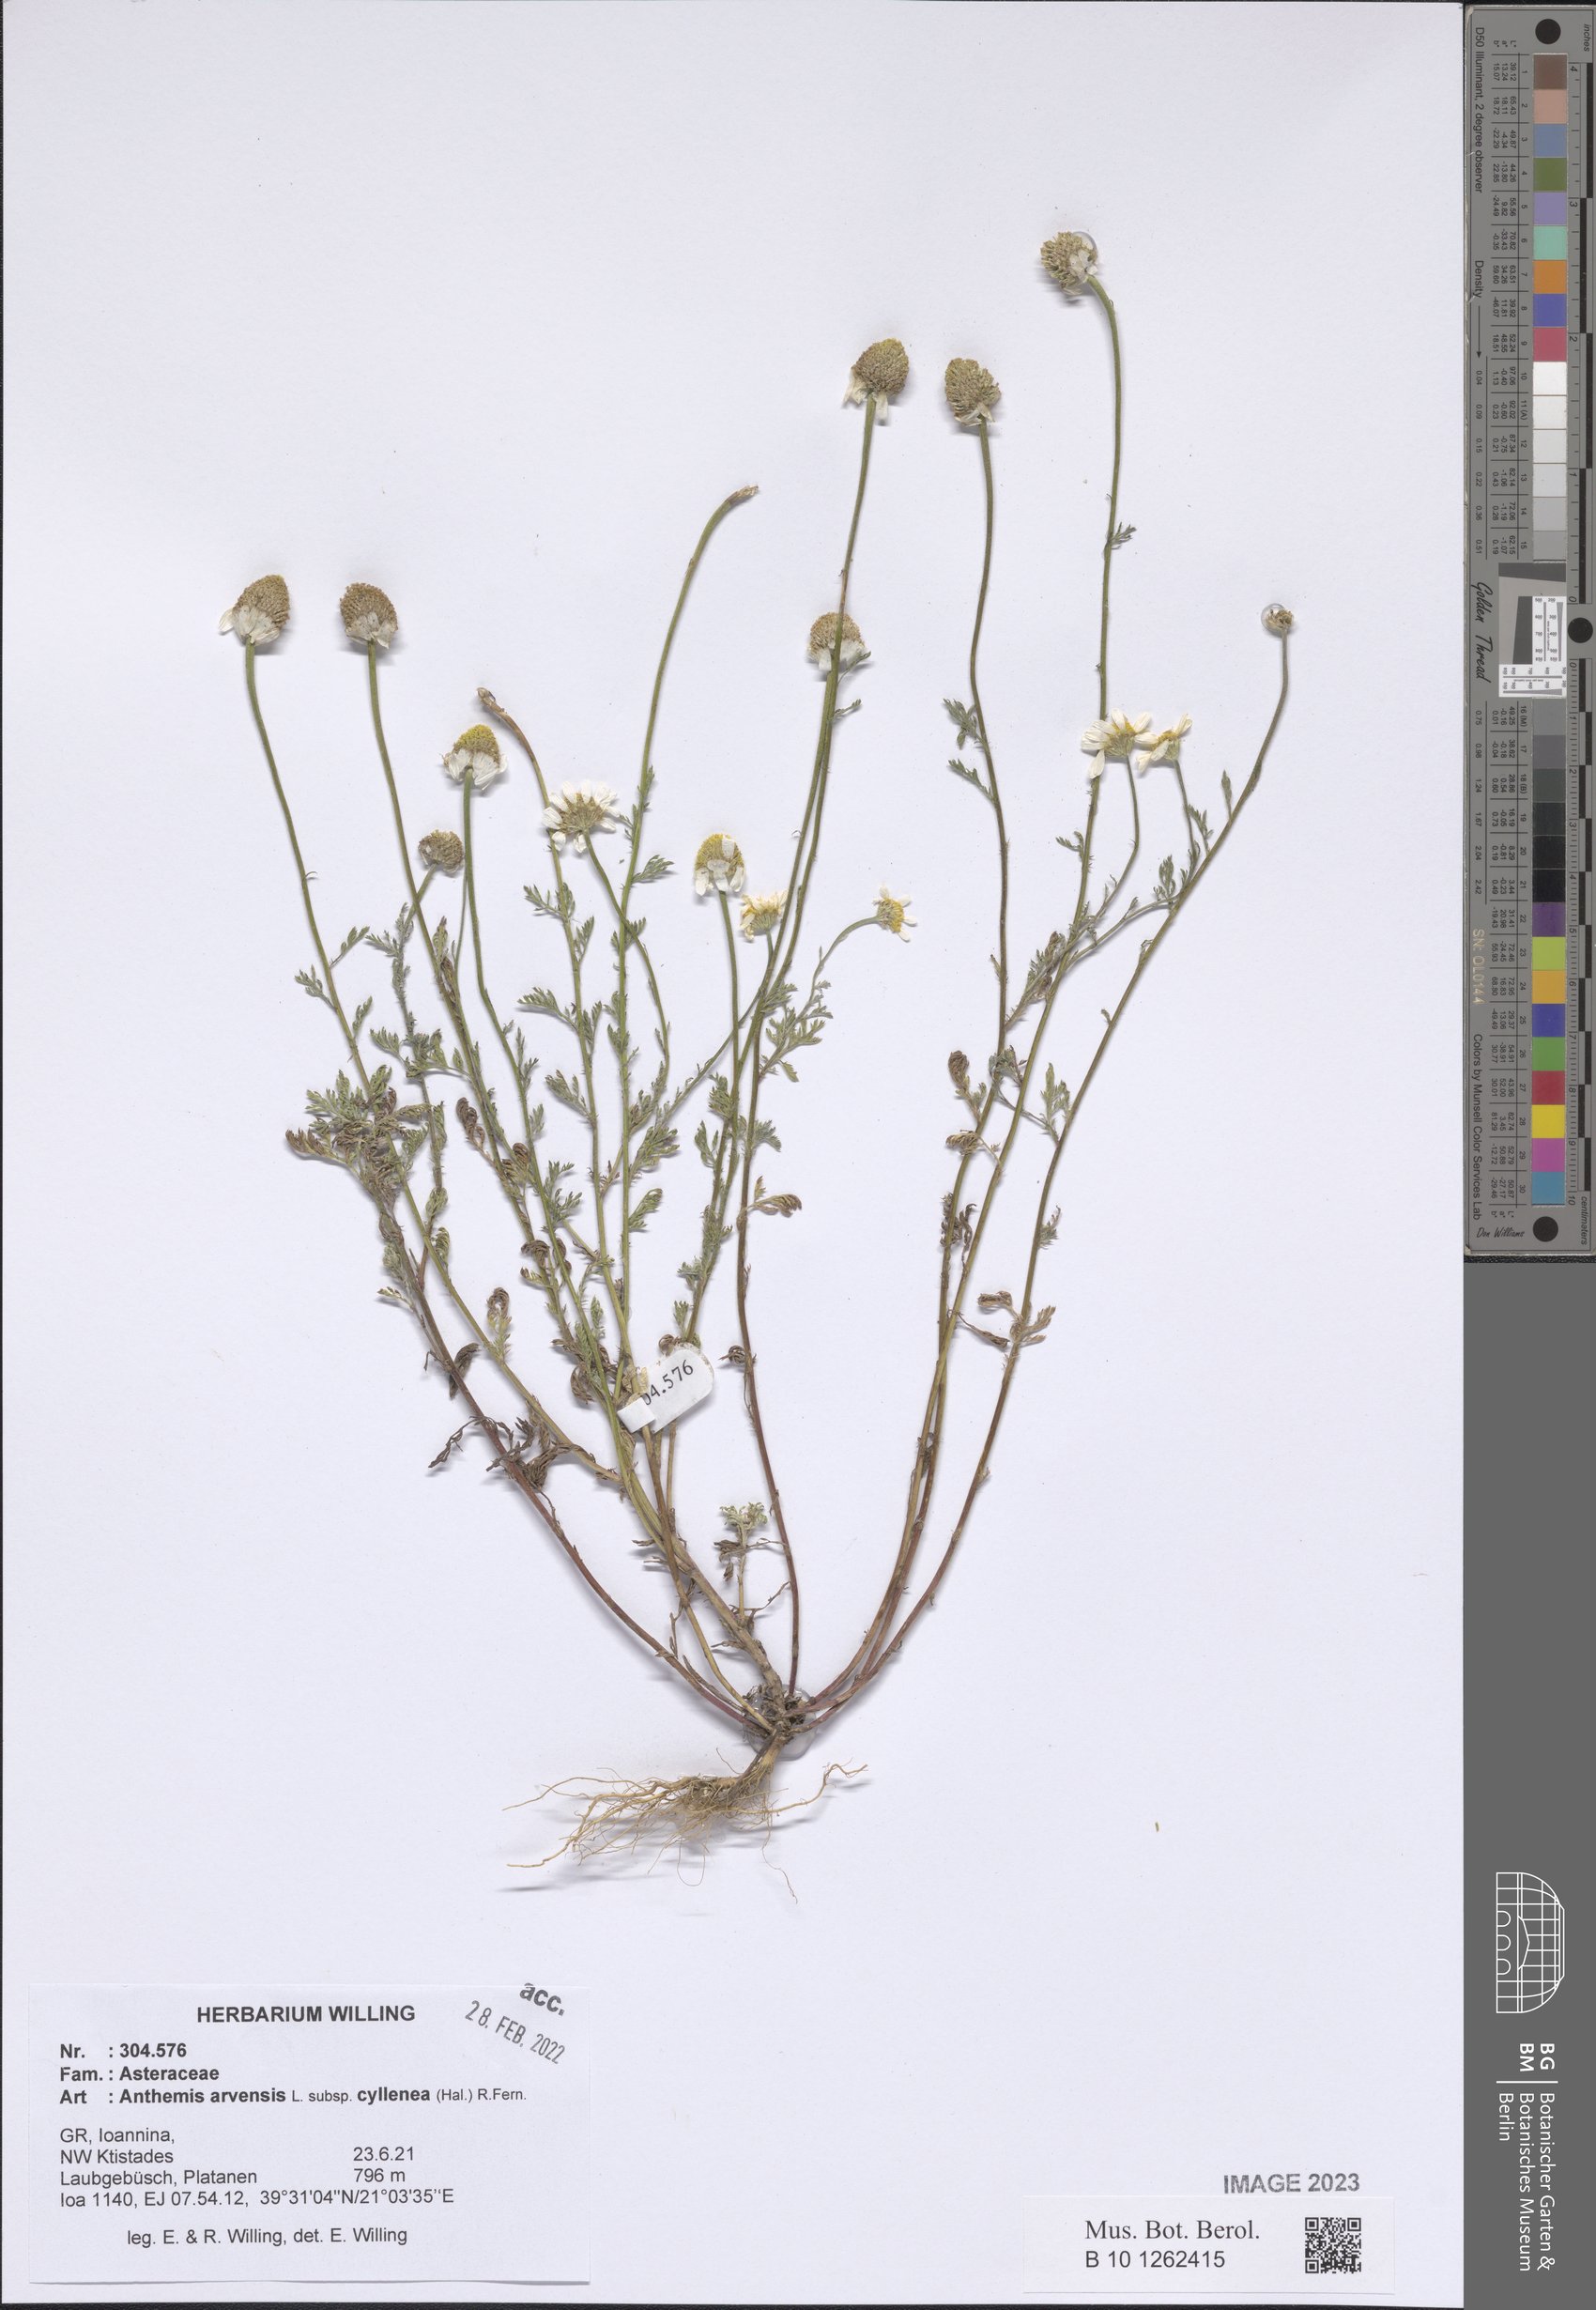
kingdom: Plantae
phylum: Tracheophyta
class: Magnoliopsida
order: Asterales
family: Asteraceae
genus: Anthemis
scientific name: Anthemis arvensis
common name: Corn chamomile
